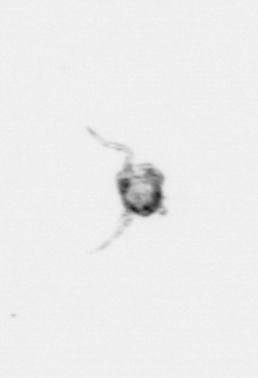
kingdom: Animalia
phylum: Arthropoda
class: Copepoda
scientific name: Copepoda
